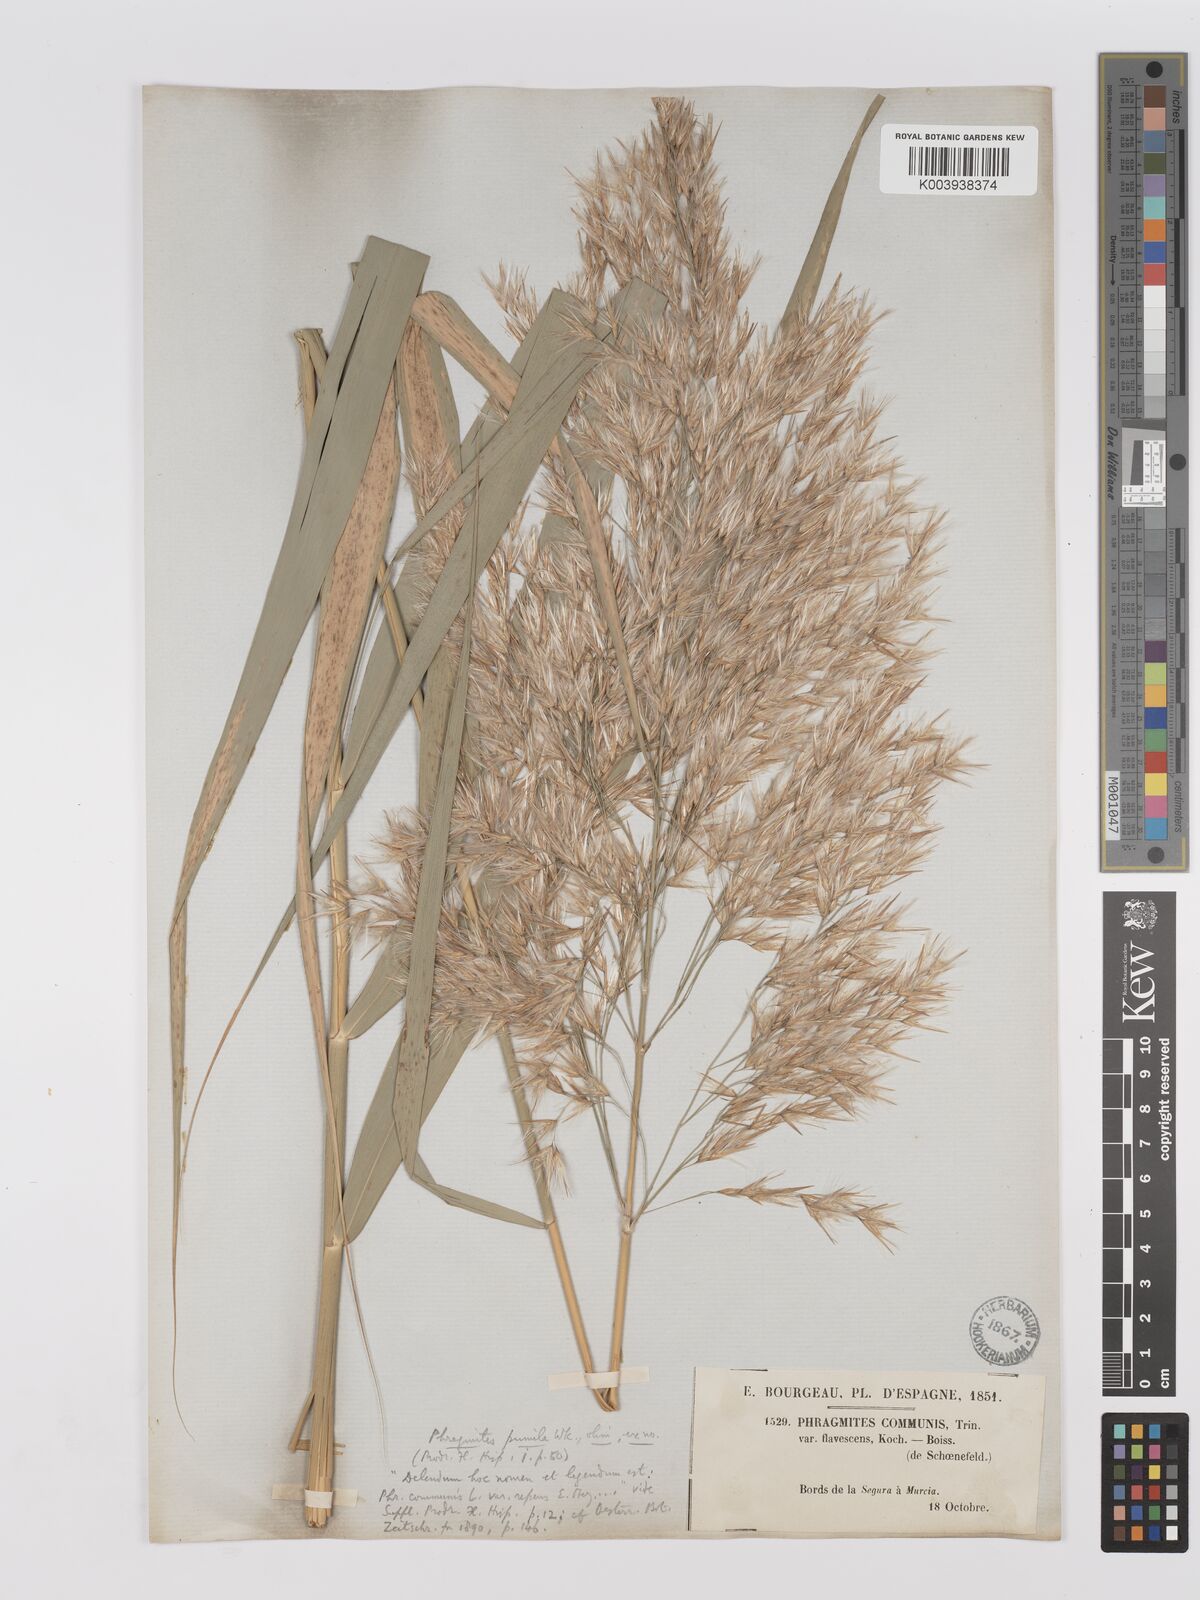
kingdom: Plantae
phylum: Tracheophyta
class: Liliopsida
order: Poales
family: Poaceae
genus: Phragmites
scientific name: Phragmites australis
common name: Common reed
